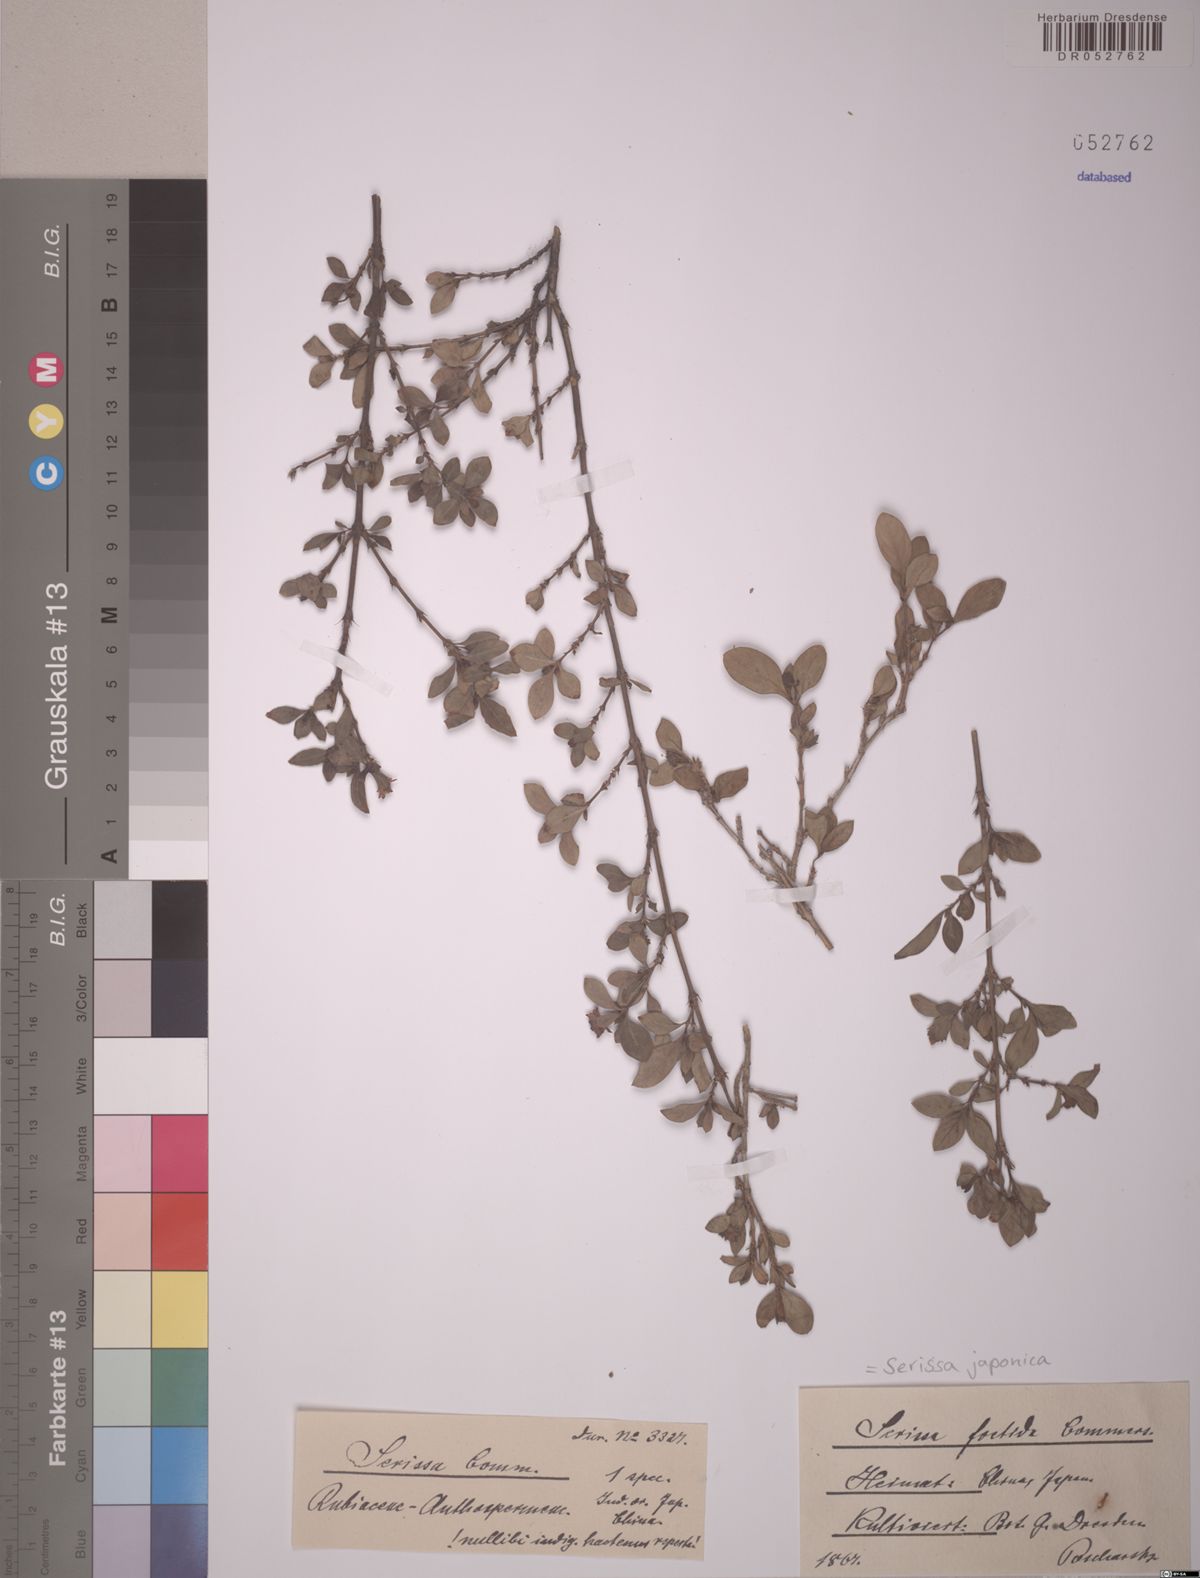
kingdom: Plantae
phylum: Tracheophyta
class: Magnoliopsida
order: Gentianales
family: Rubiaceae
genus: Buchozia
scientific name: Buchozia japonica
